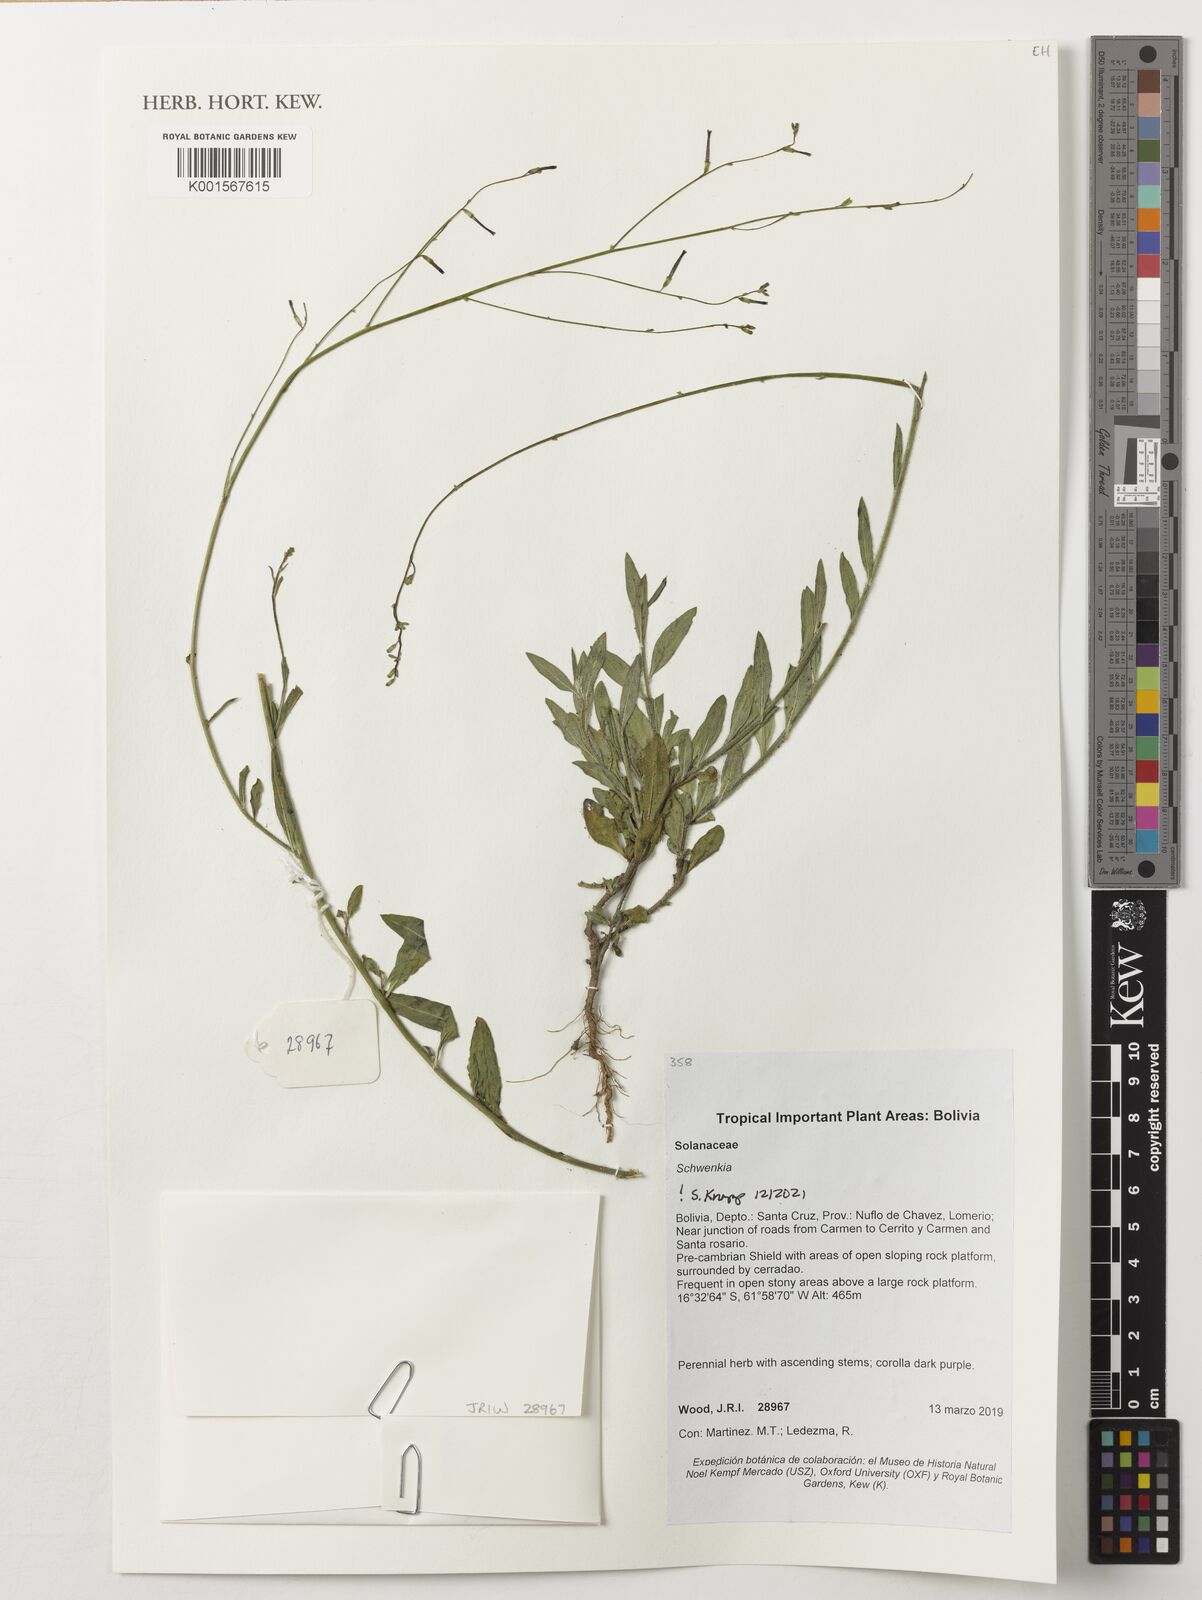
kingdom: Plantae
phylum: Tracheophyta
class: Magnoliopsida
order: Solanales
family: Solanaceae
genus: Schwenckia
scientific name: Schwenckia
